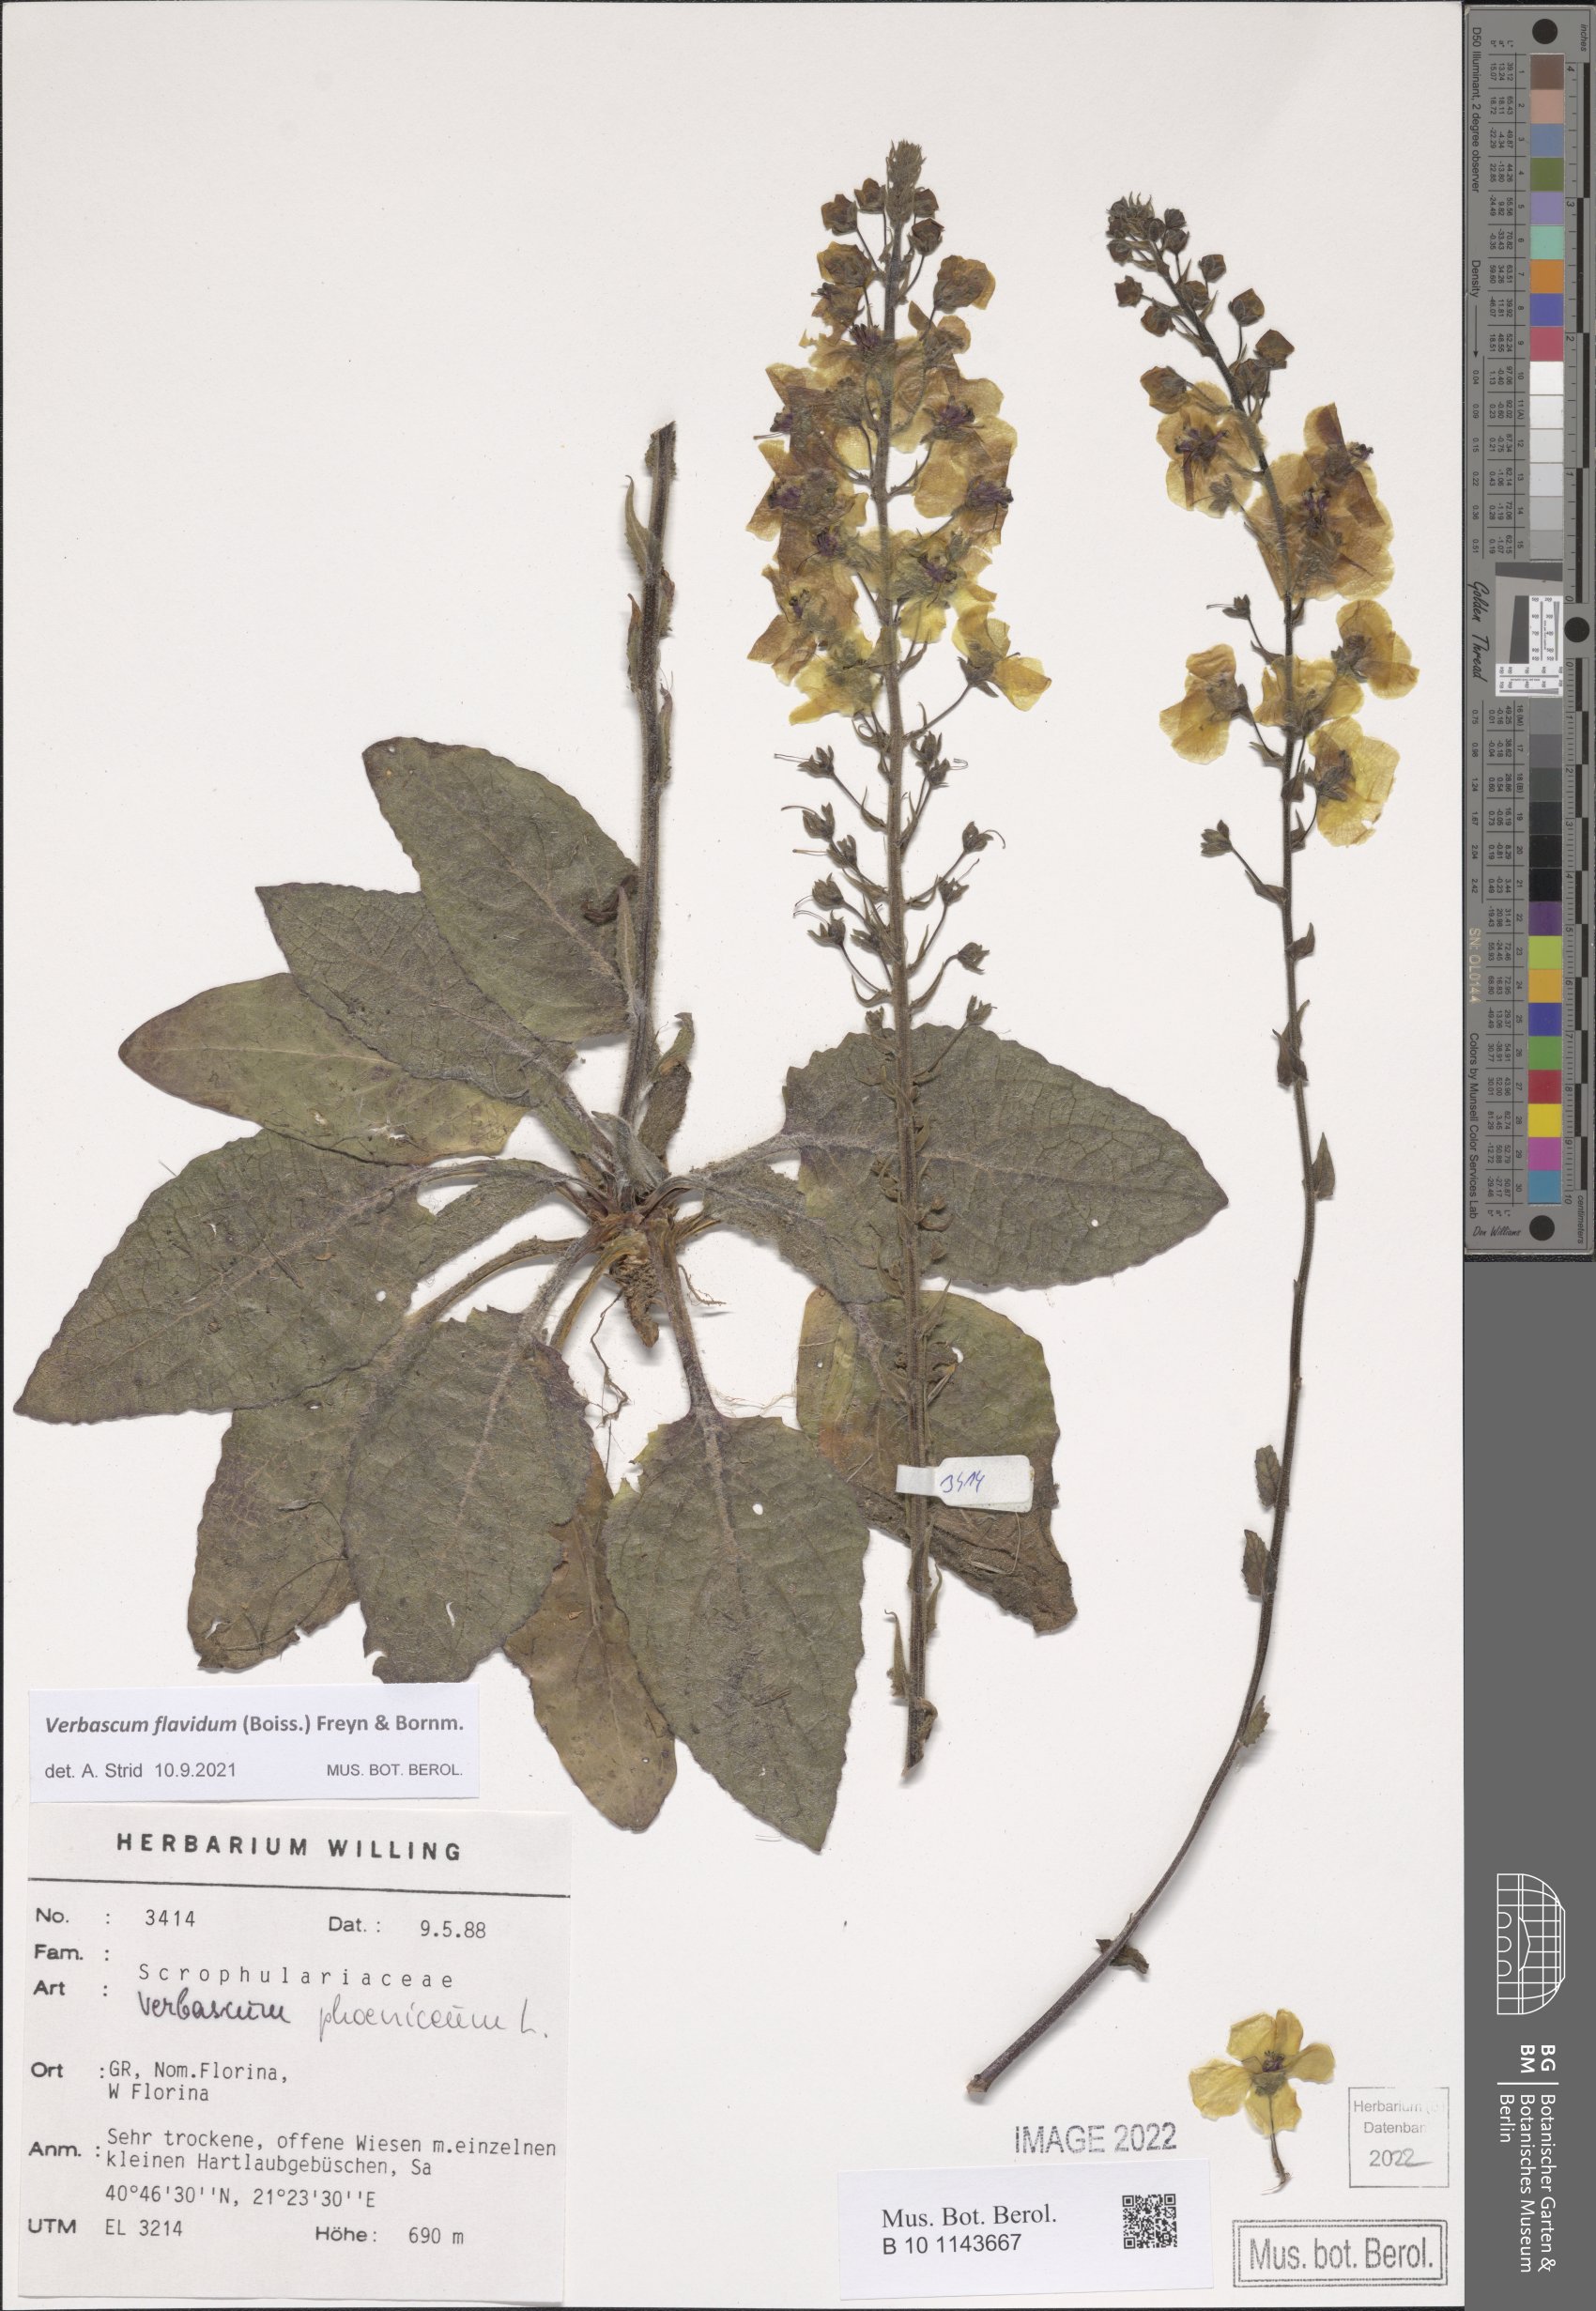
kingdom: Plantae
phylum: Tracheophyta
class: Magnoliopsida
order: Lamiales
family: Scrophulariaceae
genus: Verbascum
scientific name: Verbascum flavidum
